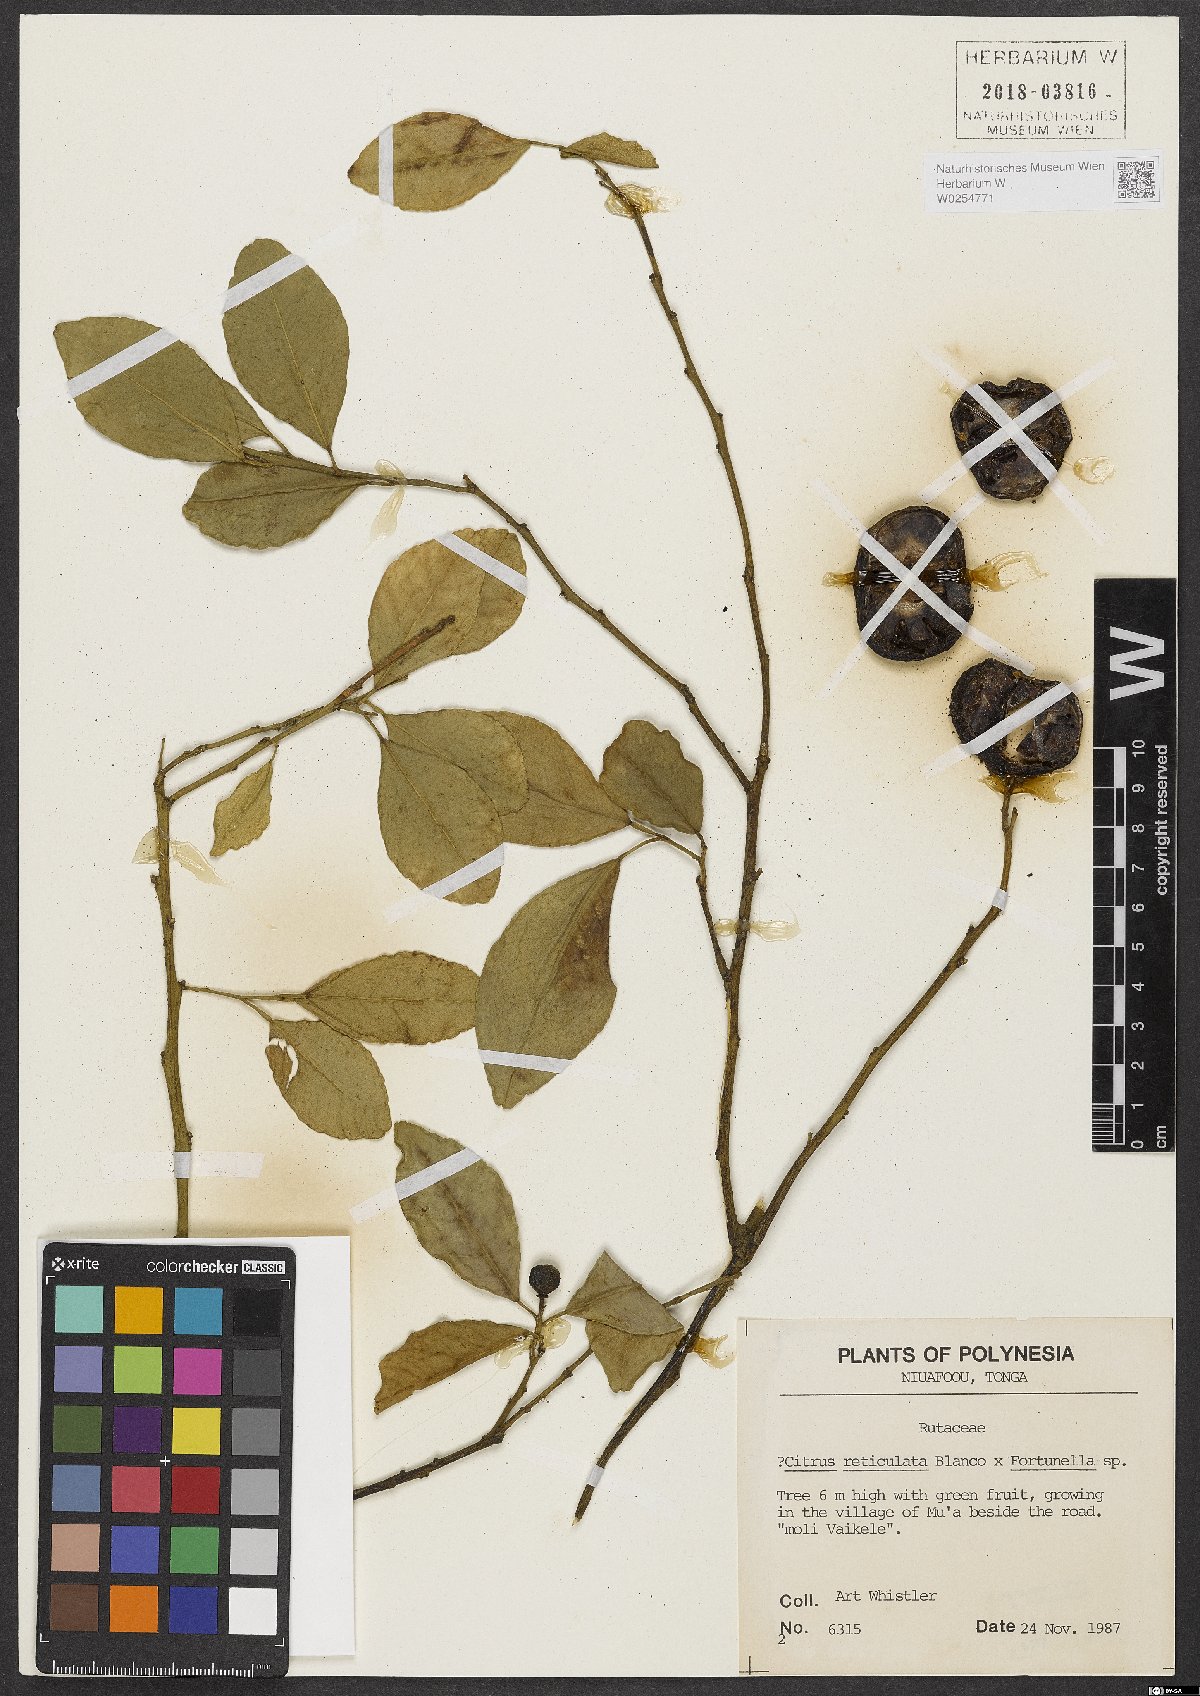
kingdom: Plantae
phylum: Tracheophyta
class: Magnoliopsida
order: Sapindales
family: Rutaceae
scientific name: Rutaceae
